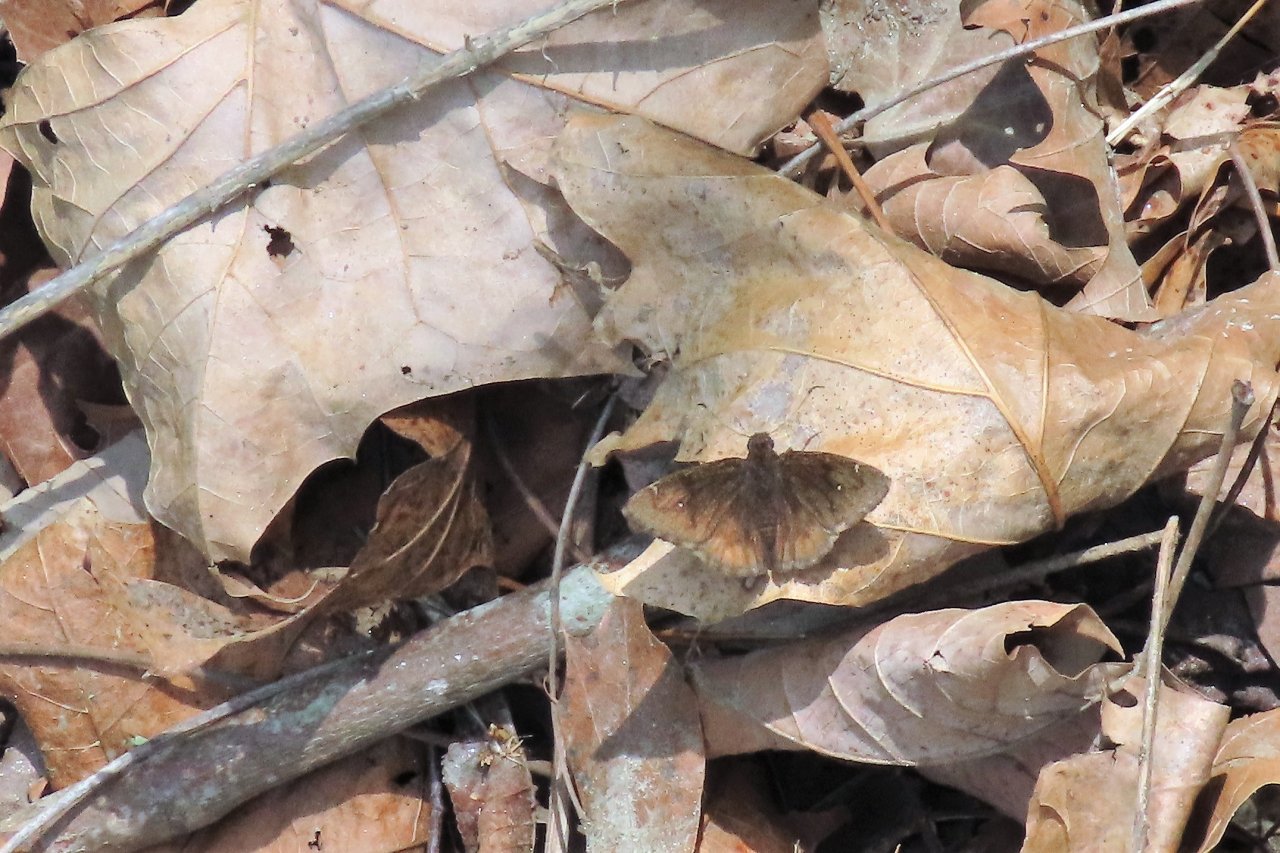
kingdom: Animalia
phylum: Arthropoda
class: Insecta
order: Lepidoptera
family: Hesperiidae
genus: Autochton
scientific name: Autochton
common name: Northern Cloudywing
